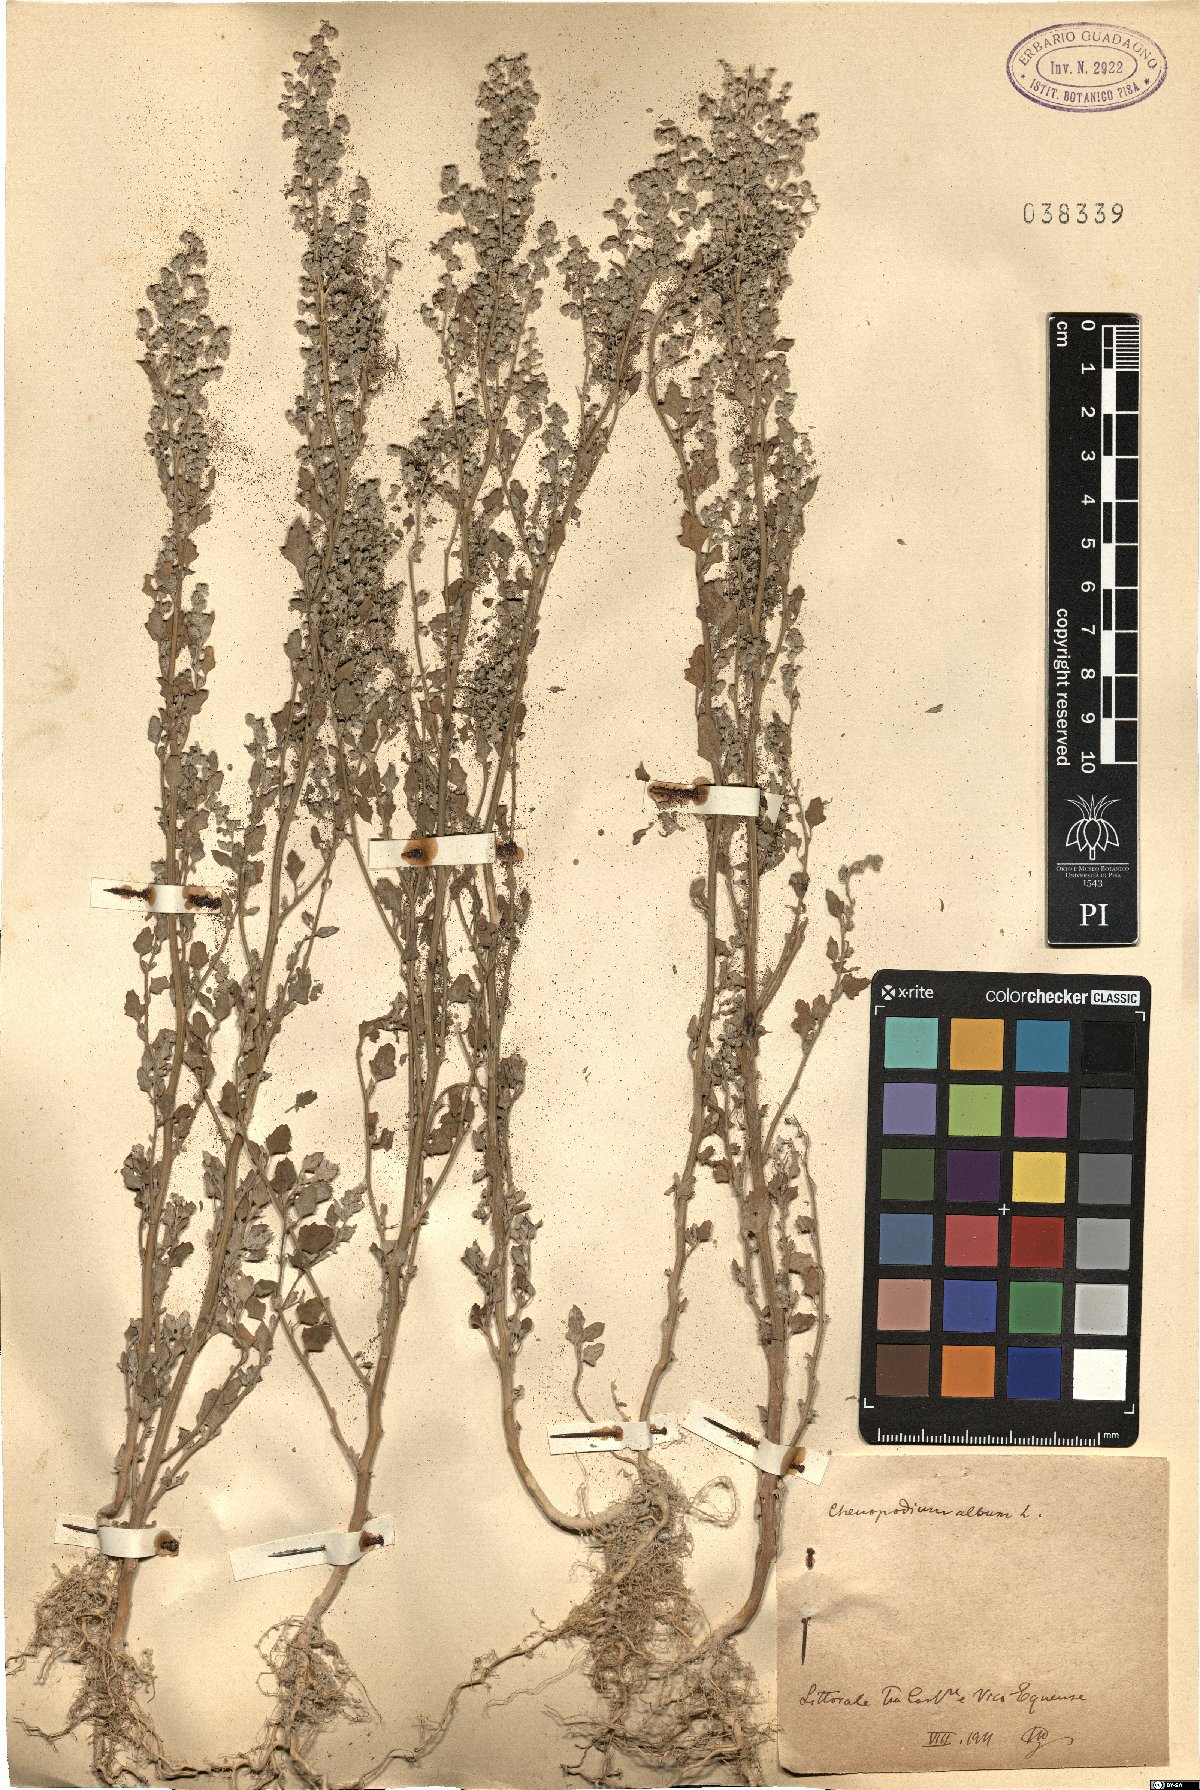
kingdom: Plantae
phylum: Tracheophyta
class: Magnoliopsida
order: Caryophyllales
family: Amaranthaceae
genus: Chenopodium
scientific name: Chenopodium album
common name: Fat-hen
